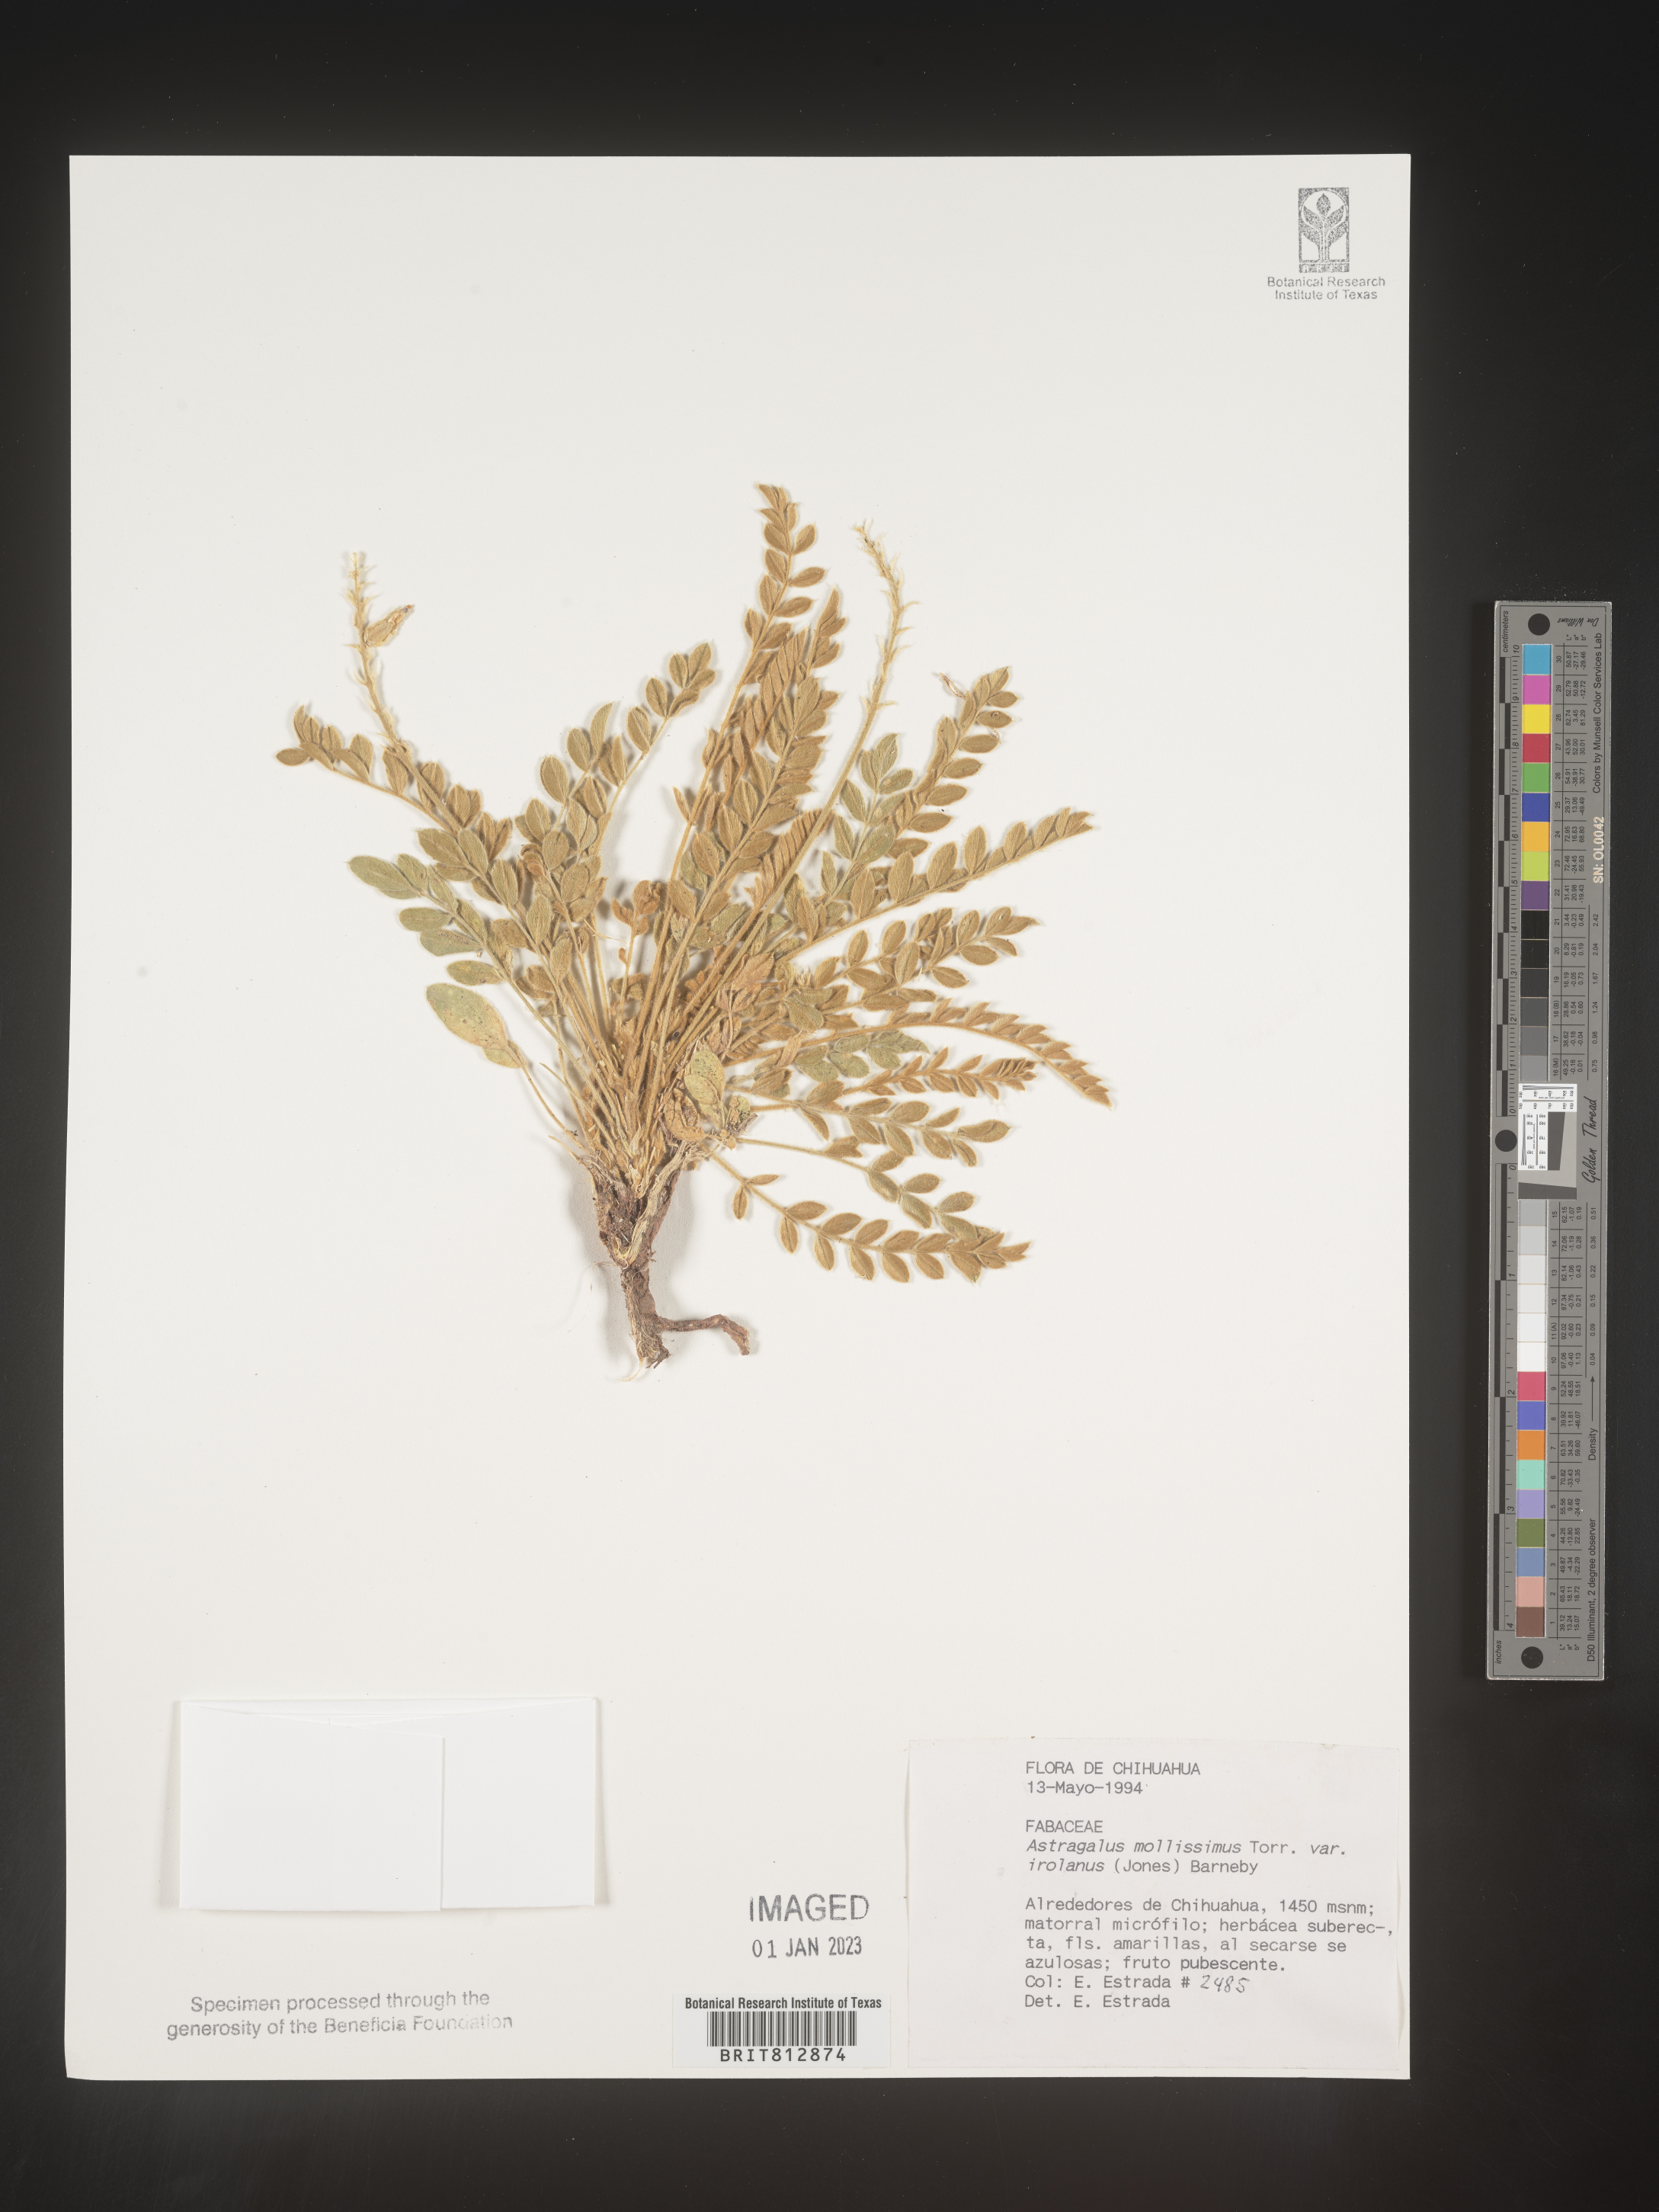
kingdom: Plantae
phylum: Tracheophyta
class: Magnoliopsida
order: Fabales
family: Fabaceae
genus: Astragalus
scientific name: Astragalus
